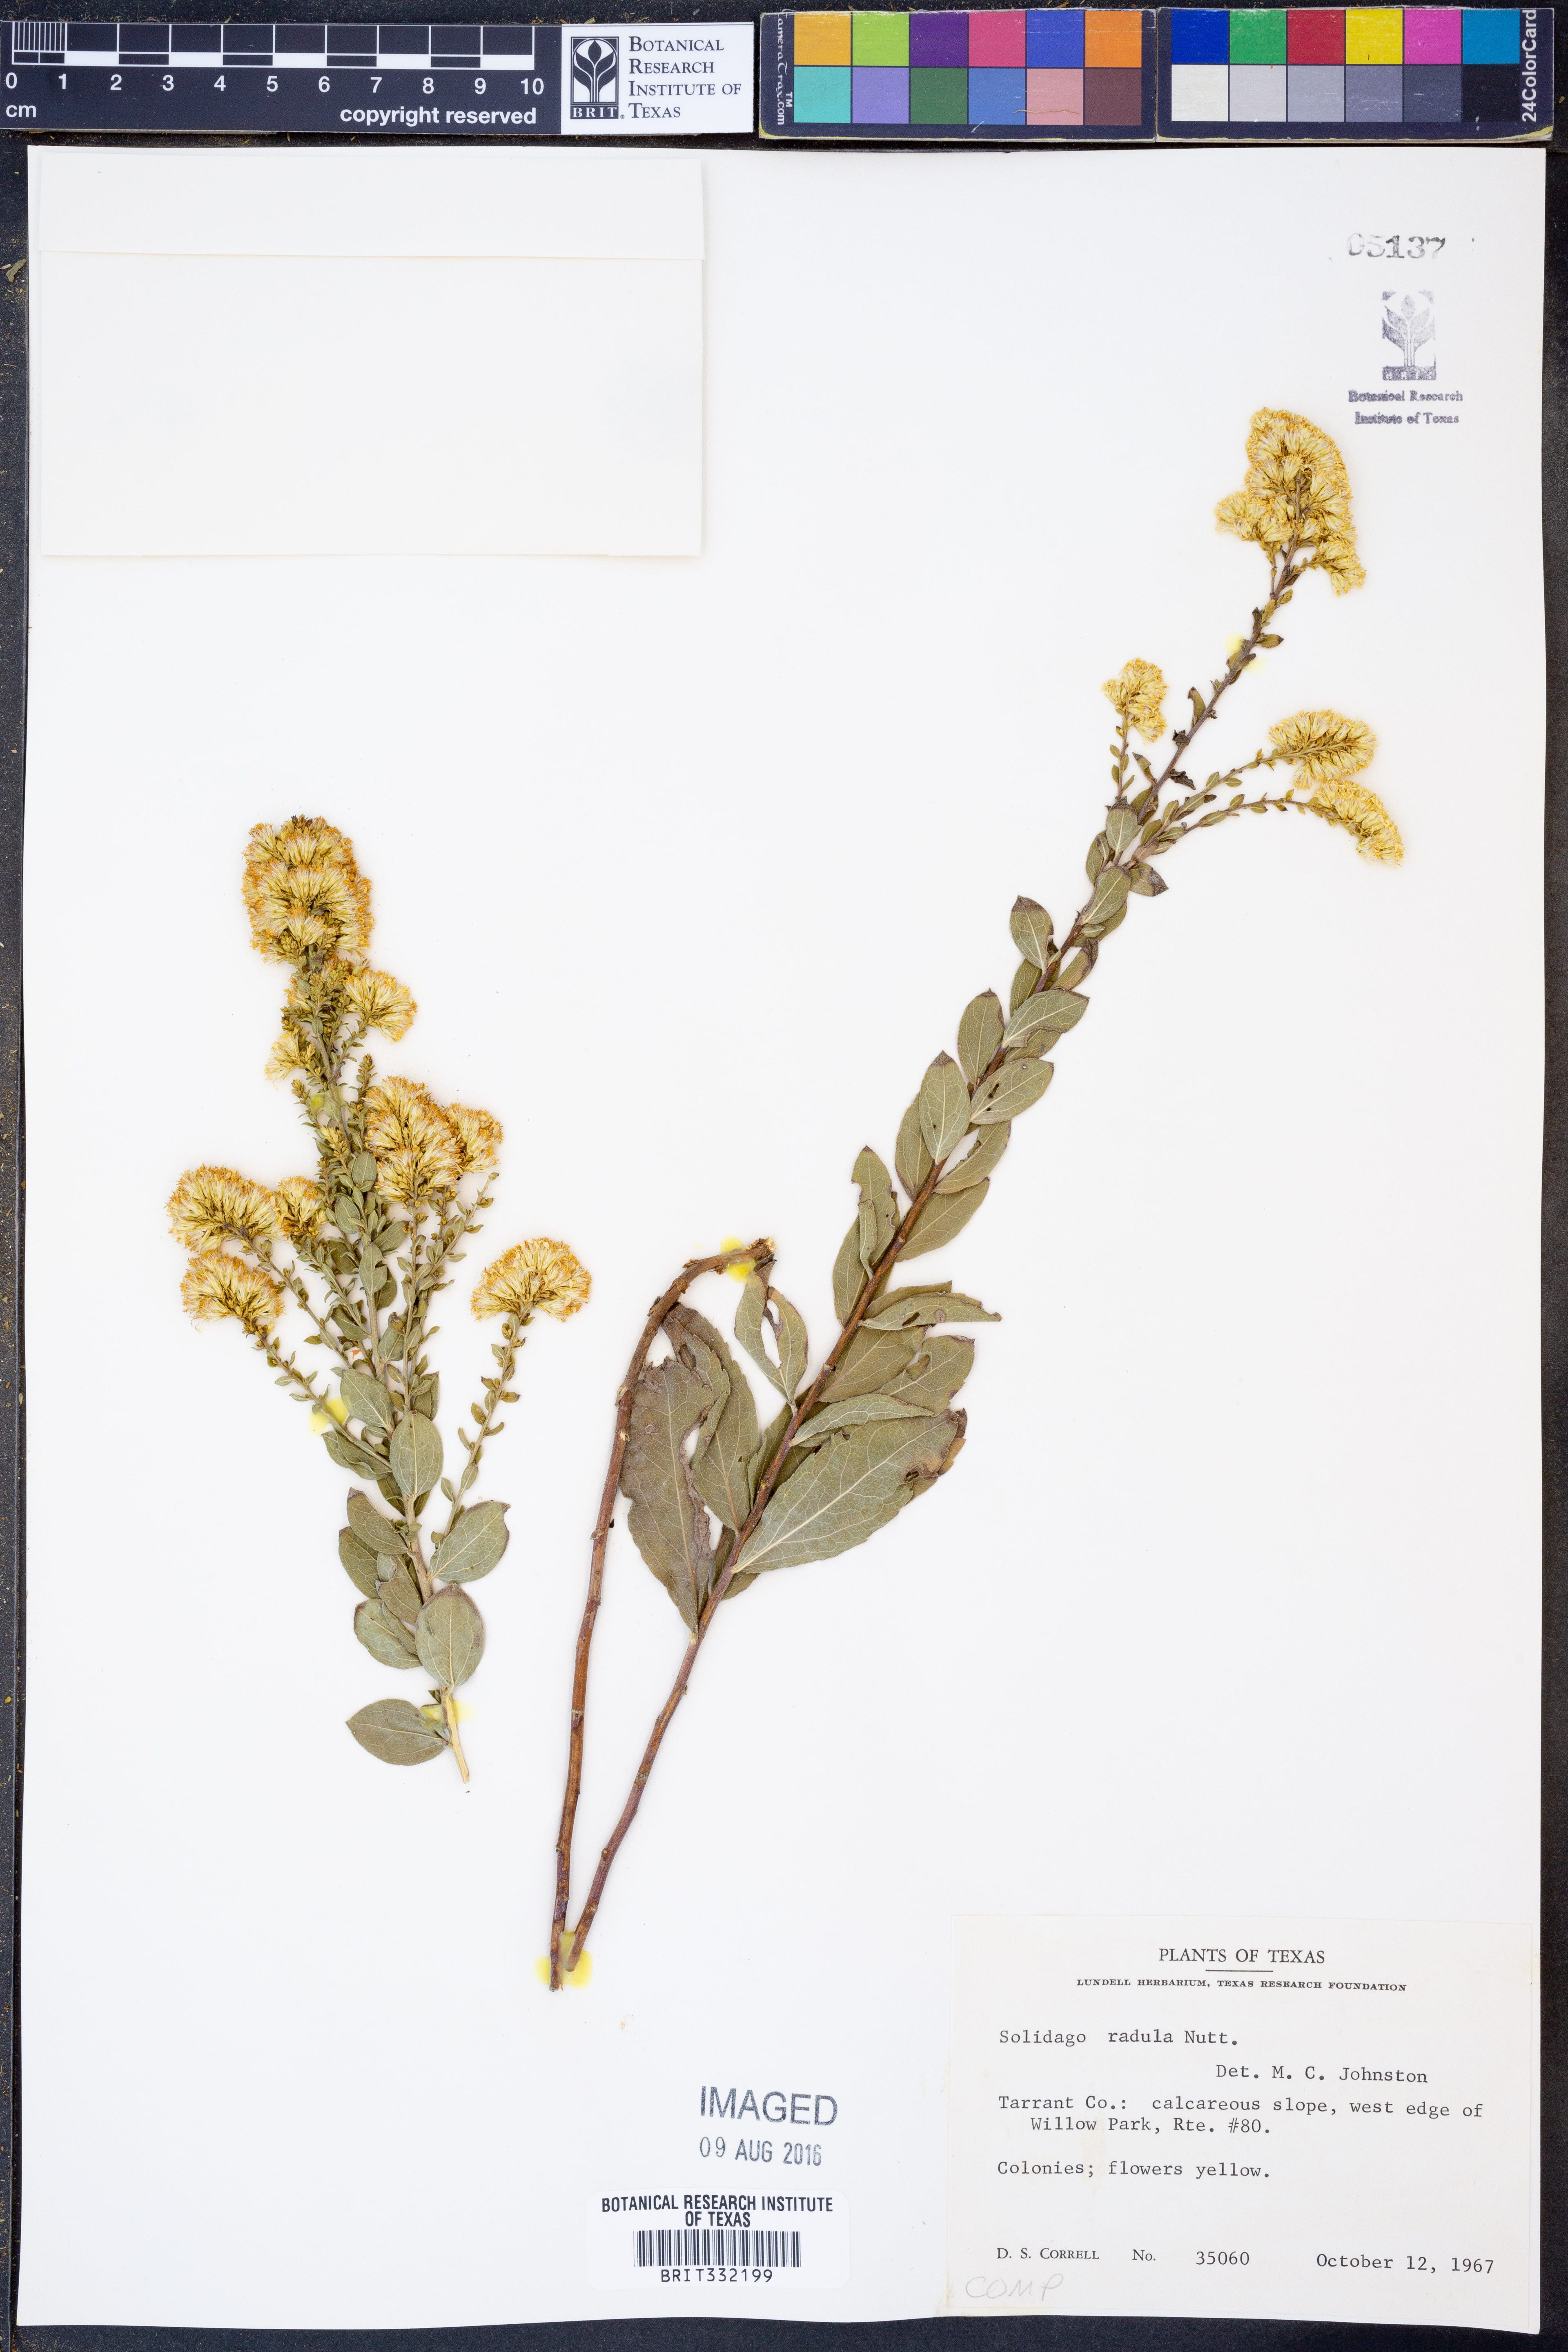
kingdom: Plantae
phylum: Tracheophyta
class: Magnoliopsida
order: Asterales
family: Asteraceae
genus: Solidago
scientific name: Solidago radula
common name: Western rough goldenrod
